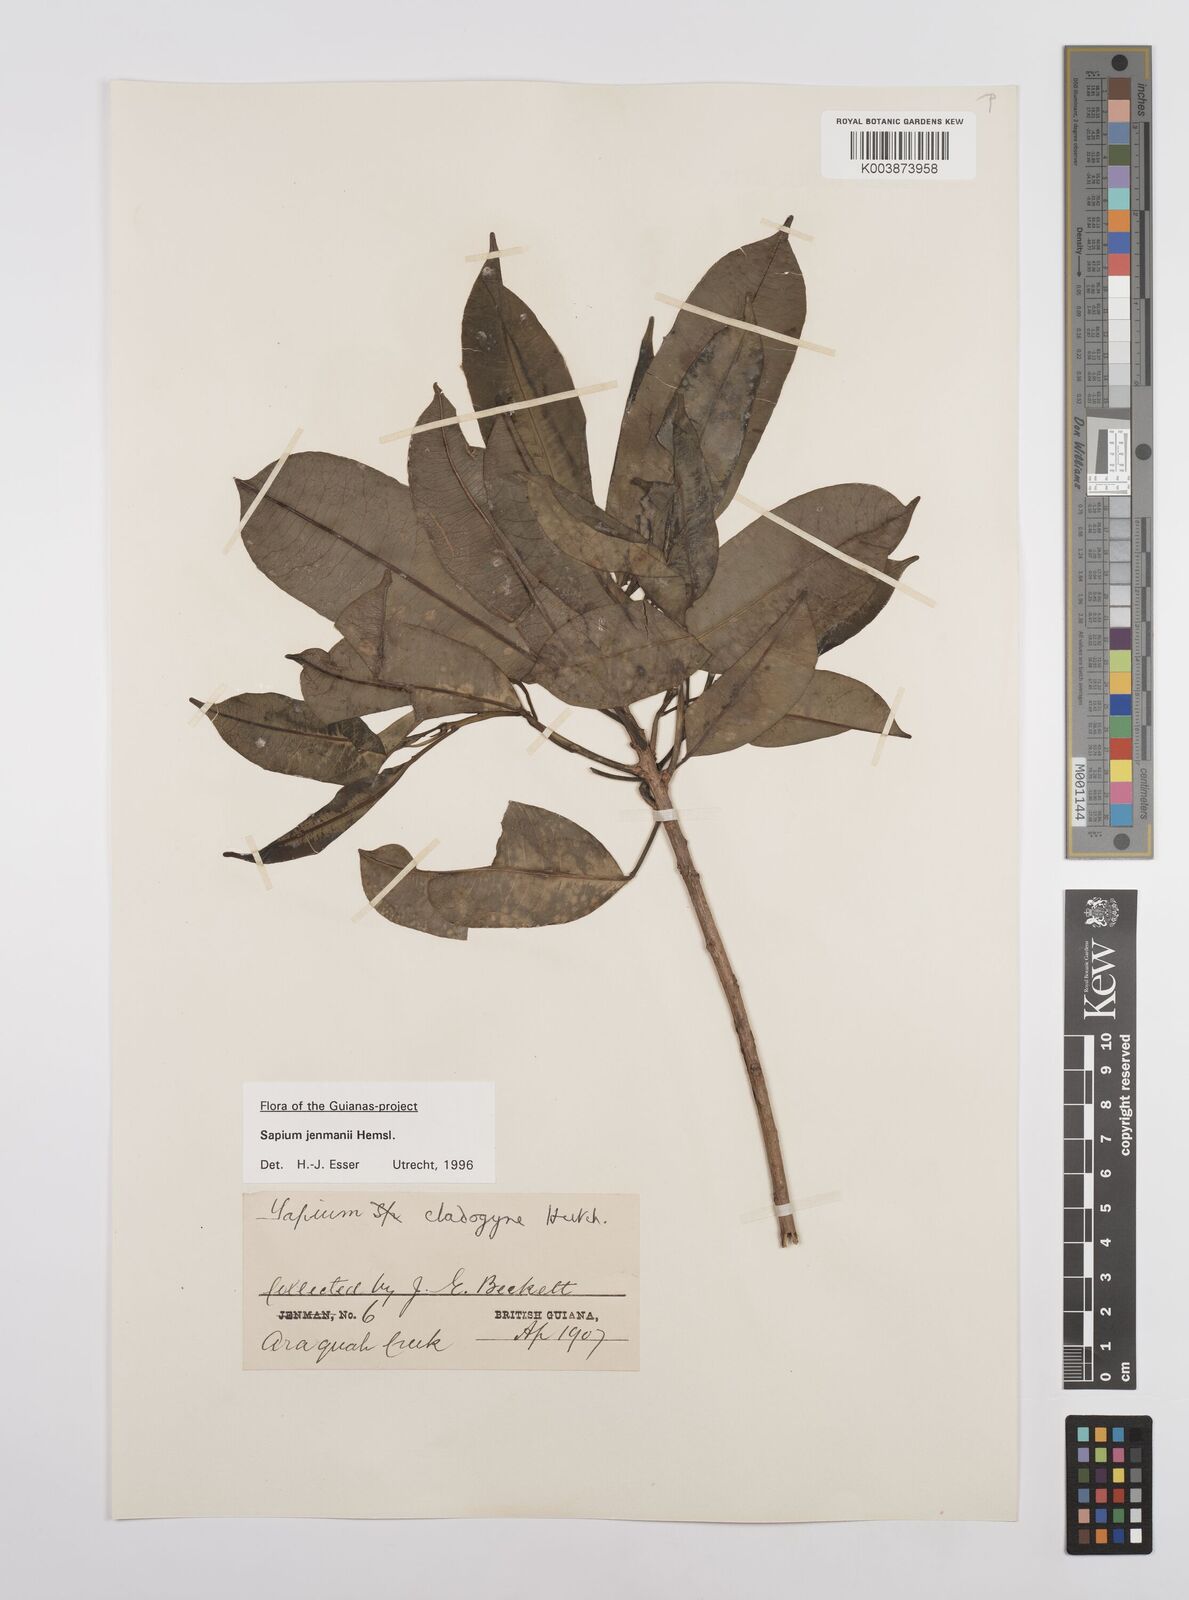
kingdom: Plantae
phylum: Tracheophyta
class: Magnoliopsida
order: Malpighiales
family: Euphorbiaceae
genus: Sapium
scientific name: Sapium jenmannii
